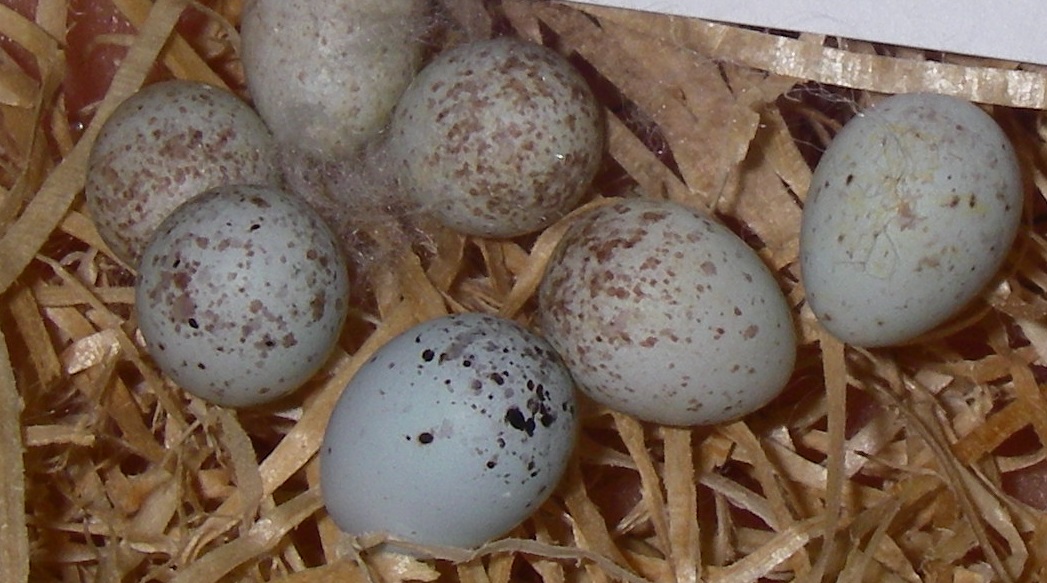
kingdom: Animalia
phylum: Chordata
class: Aves
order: Passeriformes
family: Fringillidae
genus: Linaria
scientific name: Linaria cannabina
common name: Common linnet
